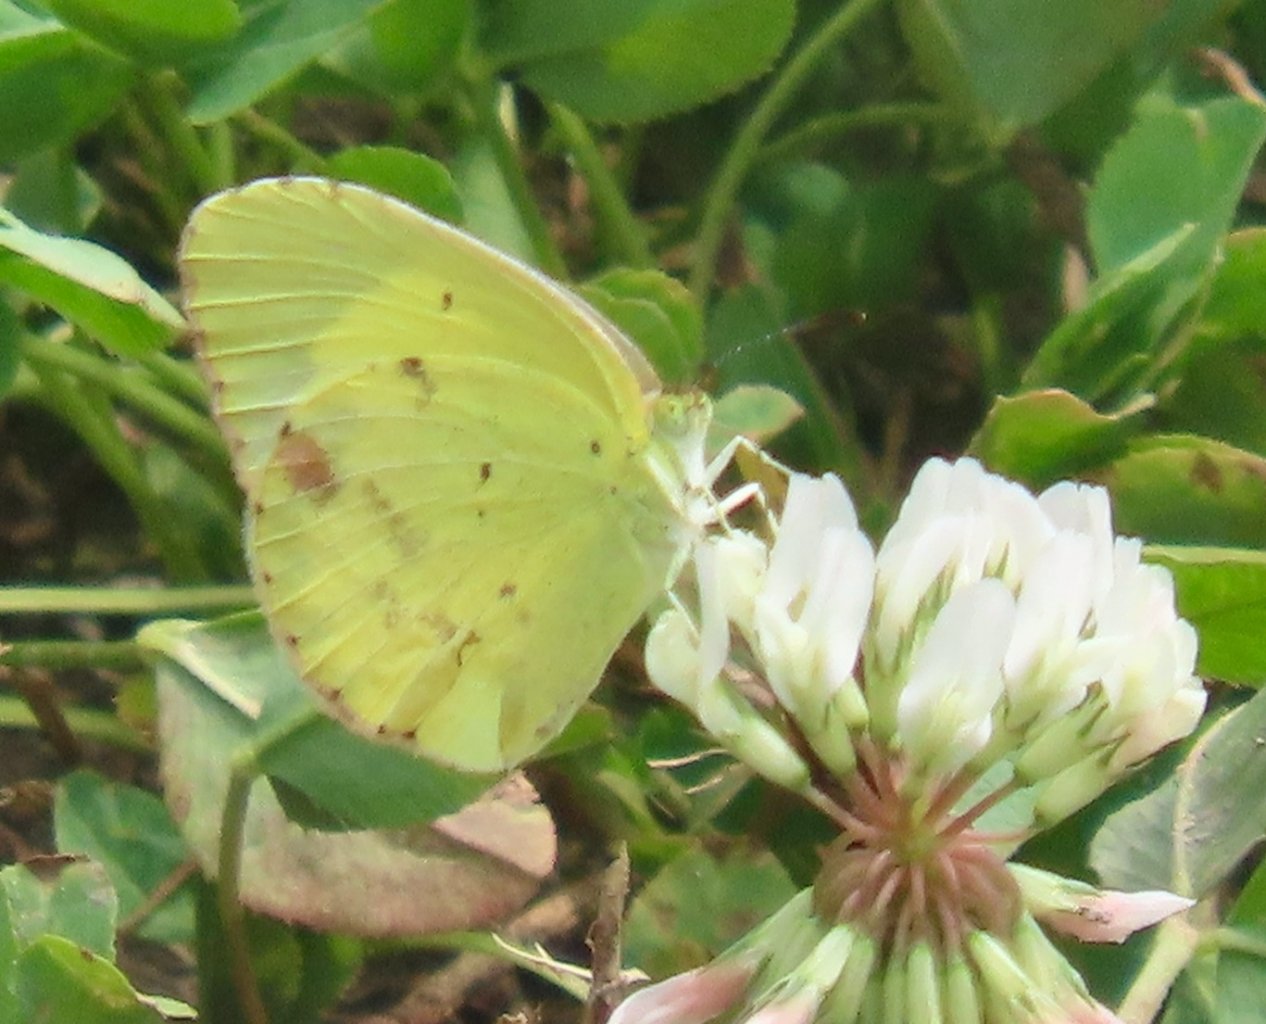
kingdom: Animalia
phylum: Arthropoda
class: Insecta
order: Lepidoptera
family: Pieridae
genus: Pyrisitia
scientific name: Pyrisitia lisa
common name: Little Yellow
